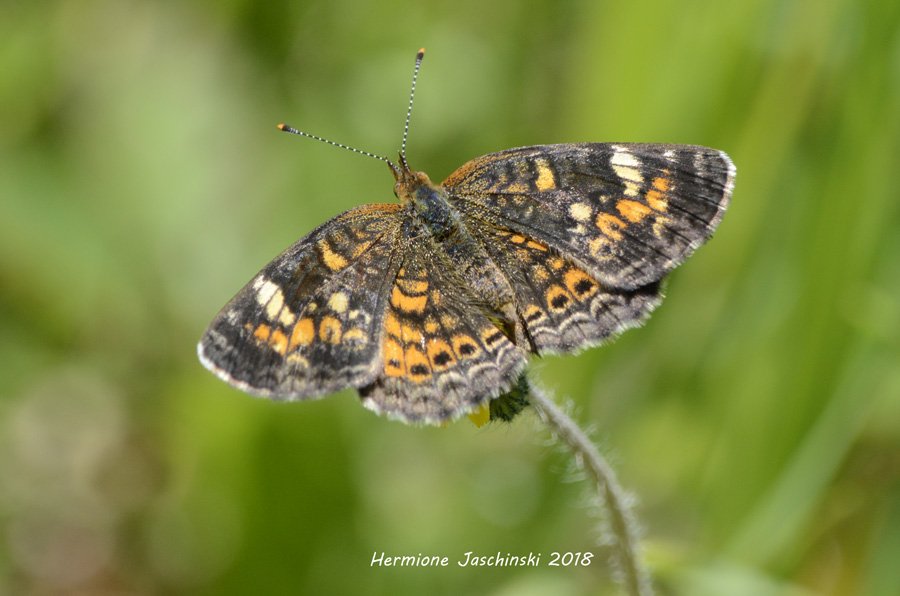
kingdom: Animalia
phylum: Arthropoda
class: Insecta
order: Lepidoptera
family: Nymphalidae
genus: Phyciodes
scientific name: Phyciodes tharos
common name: Pearl Crescent
